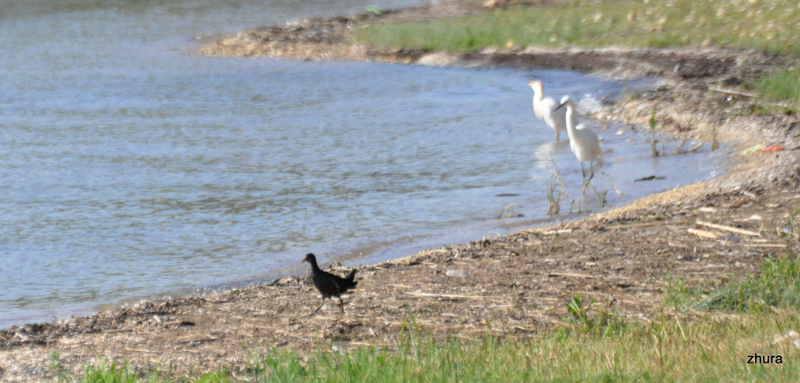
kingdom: Animalia
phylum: Chordata
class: Aves
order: Gruiformes
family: Rallidae
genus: Gallinula
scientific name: Gallinula chloropus
